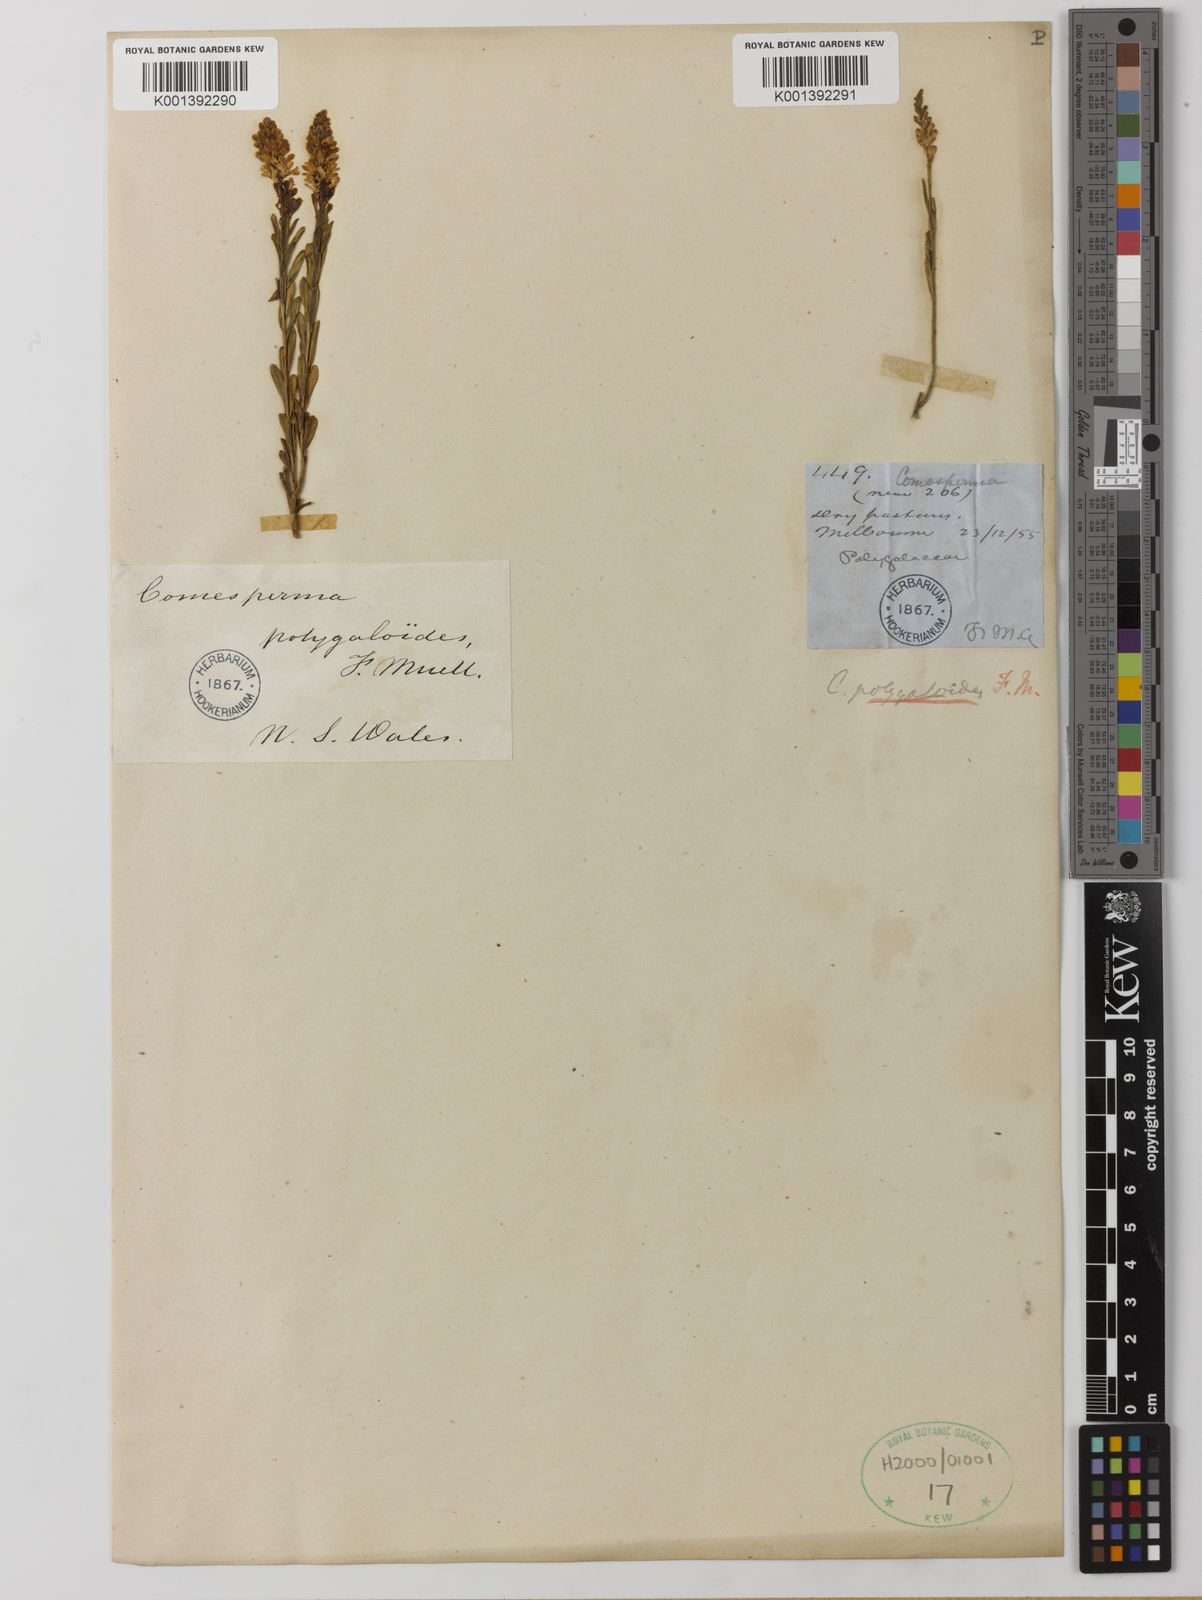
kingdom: Plantae
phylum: Tracheophyta
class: Magnoliopsida
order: Fabales
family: Polygalaceae
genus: Comesperma
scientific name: Comesperma polygaloides
